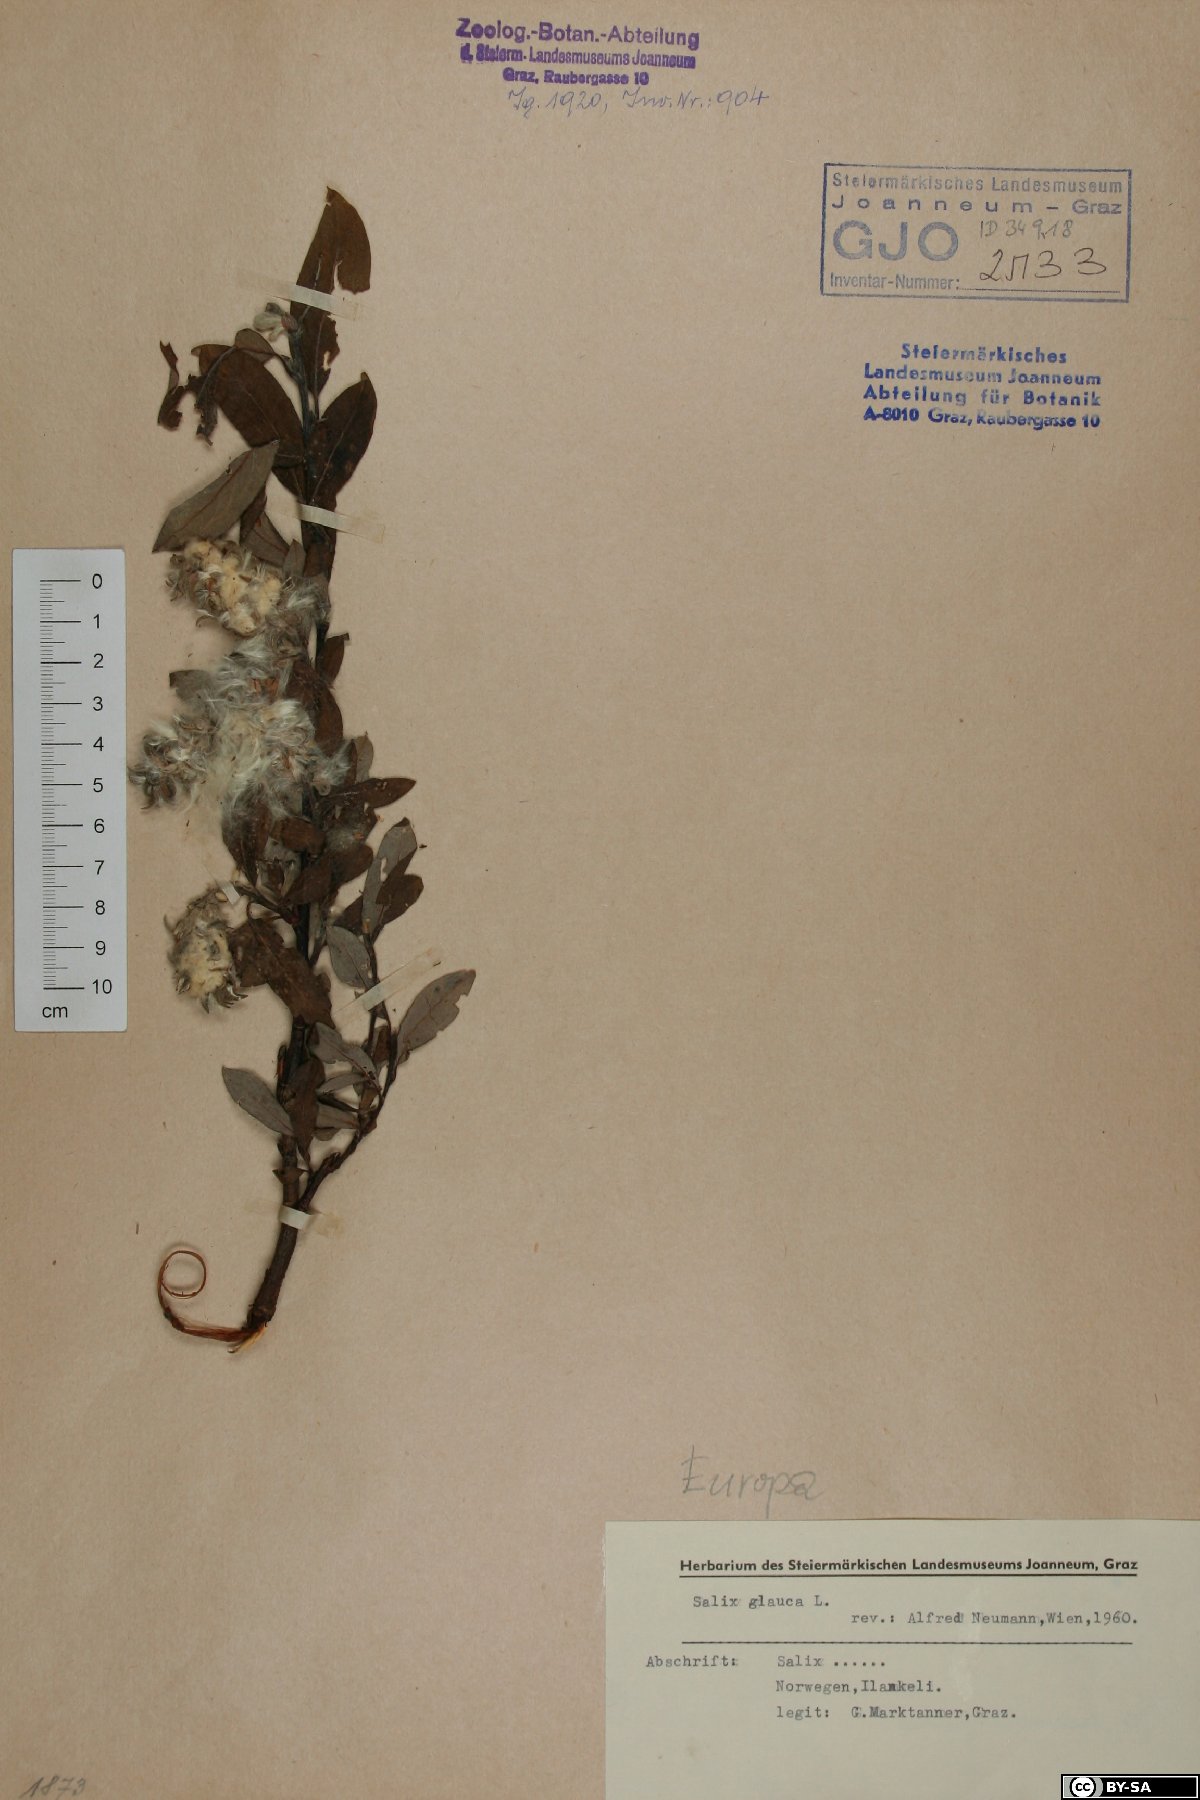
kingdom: Plantae
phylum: Tracheophyta
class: Magnoliopsida
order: Malpighiales
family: Salicaceae
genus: Salix
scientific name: Salix glauca
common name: Glaucous willow
